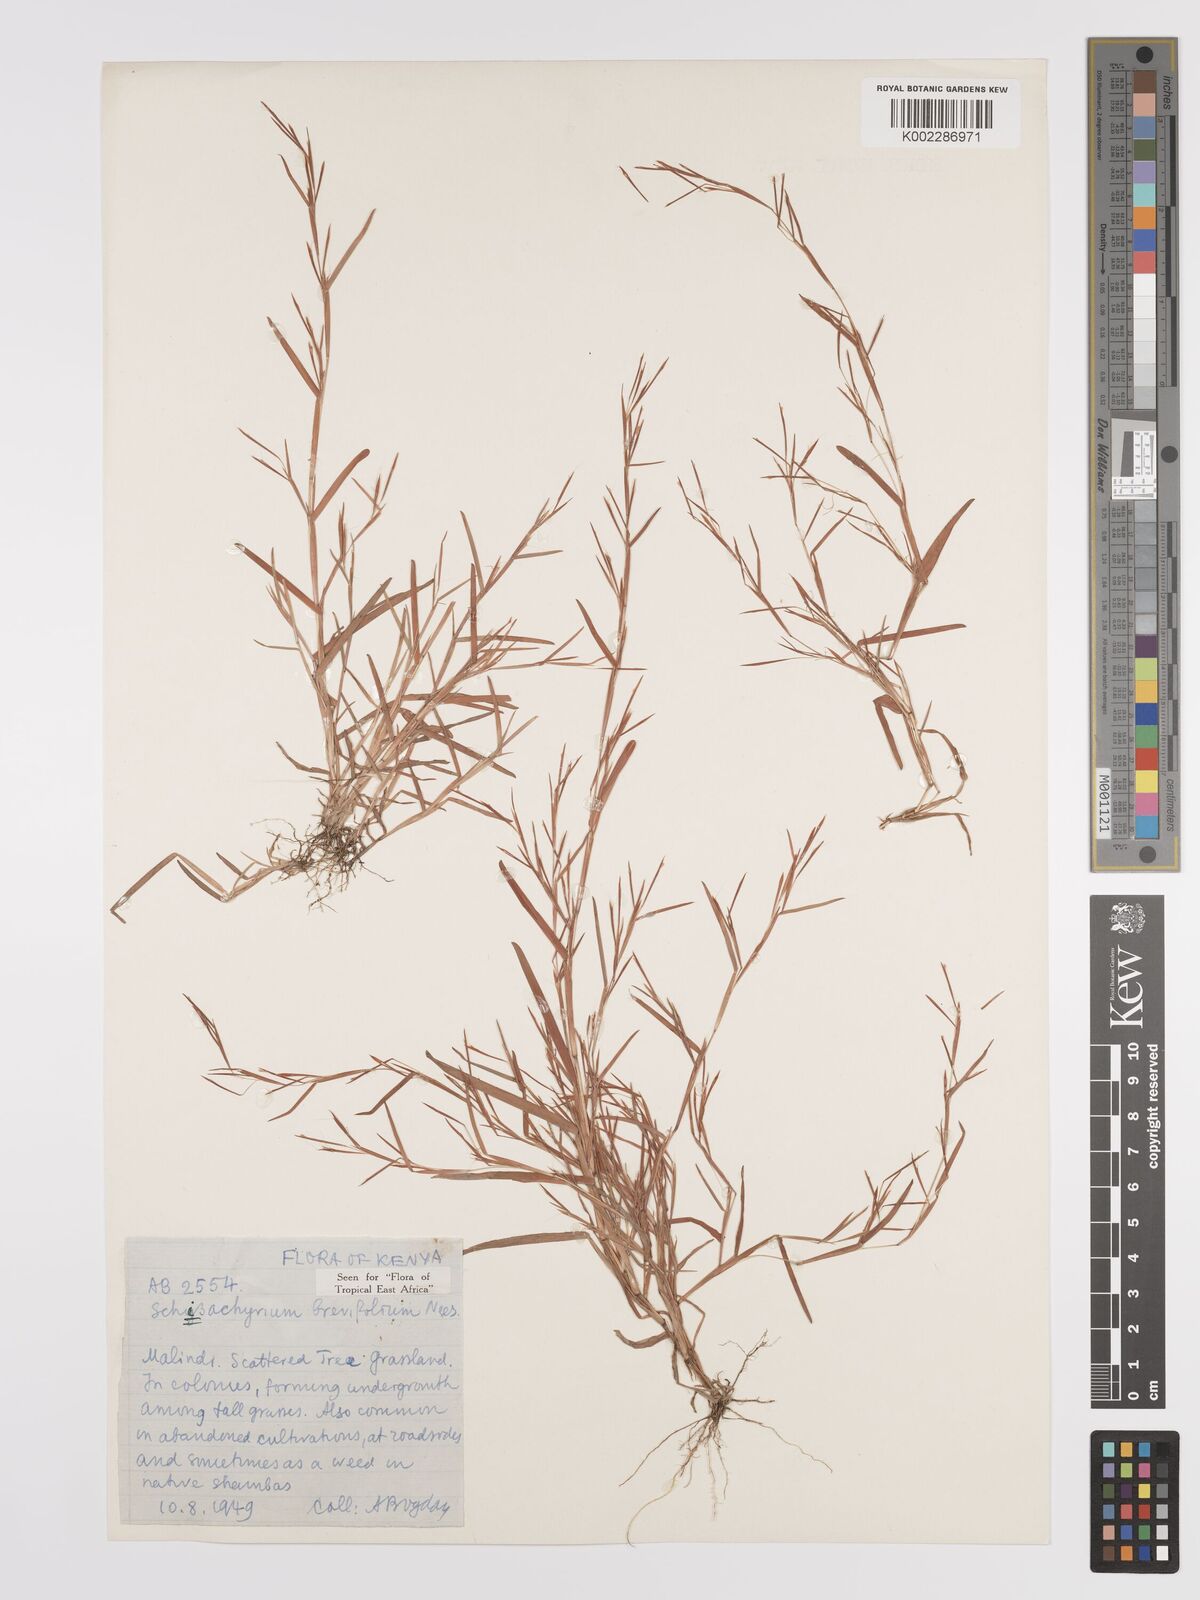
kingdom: Plantae
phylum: Tracheophyta
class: Liliopsida
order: Poales
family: Poaceae
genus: Schizachyrium
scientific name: Schizachyrium brevifolium
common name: Serillo dulce
